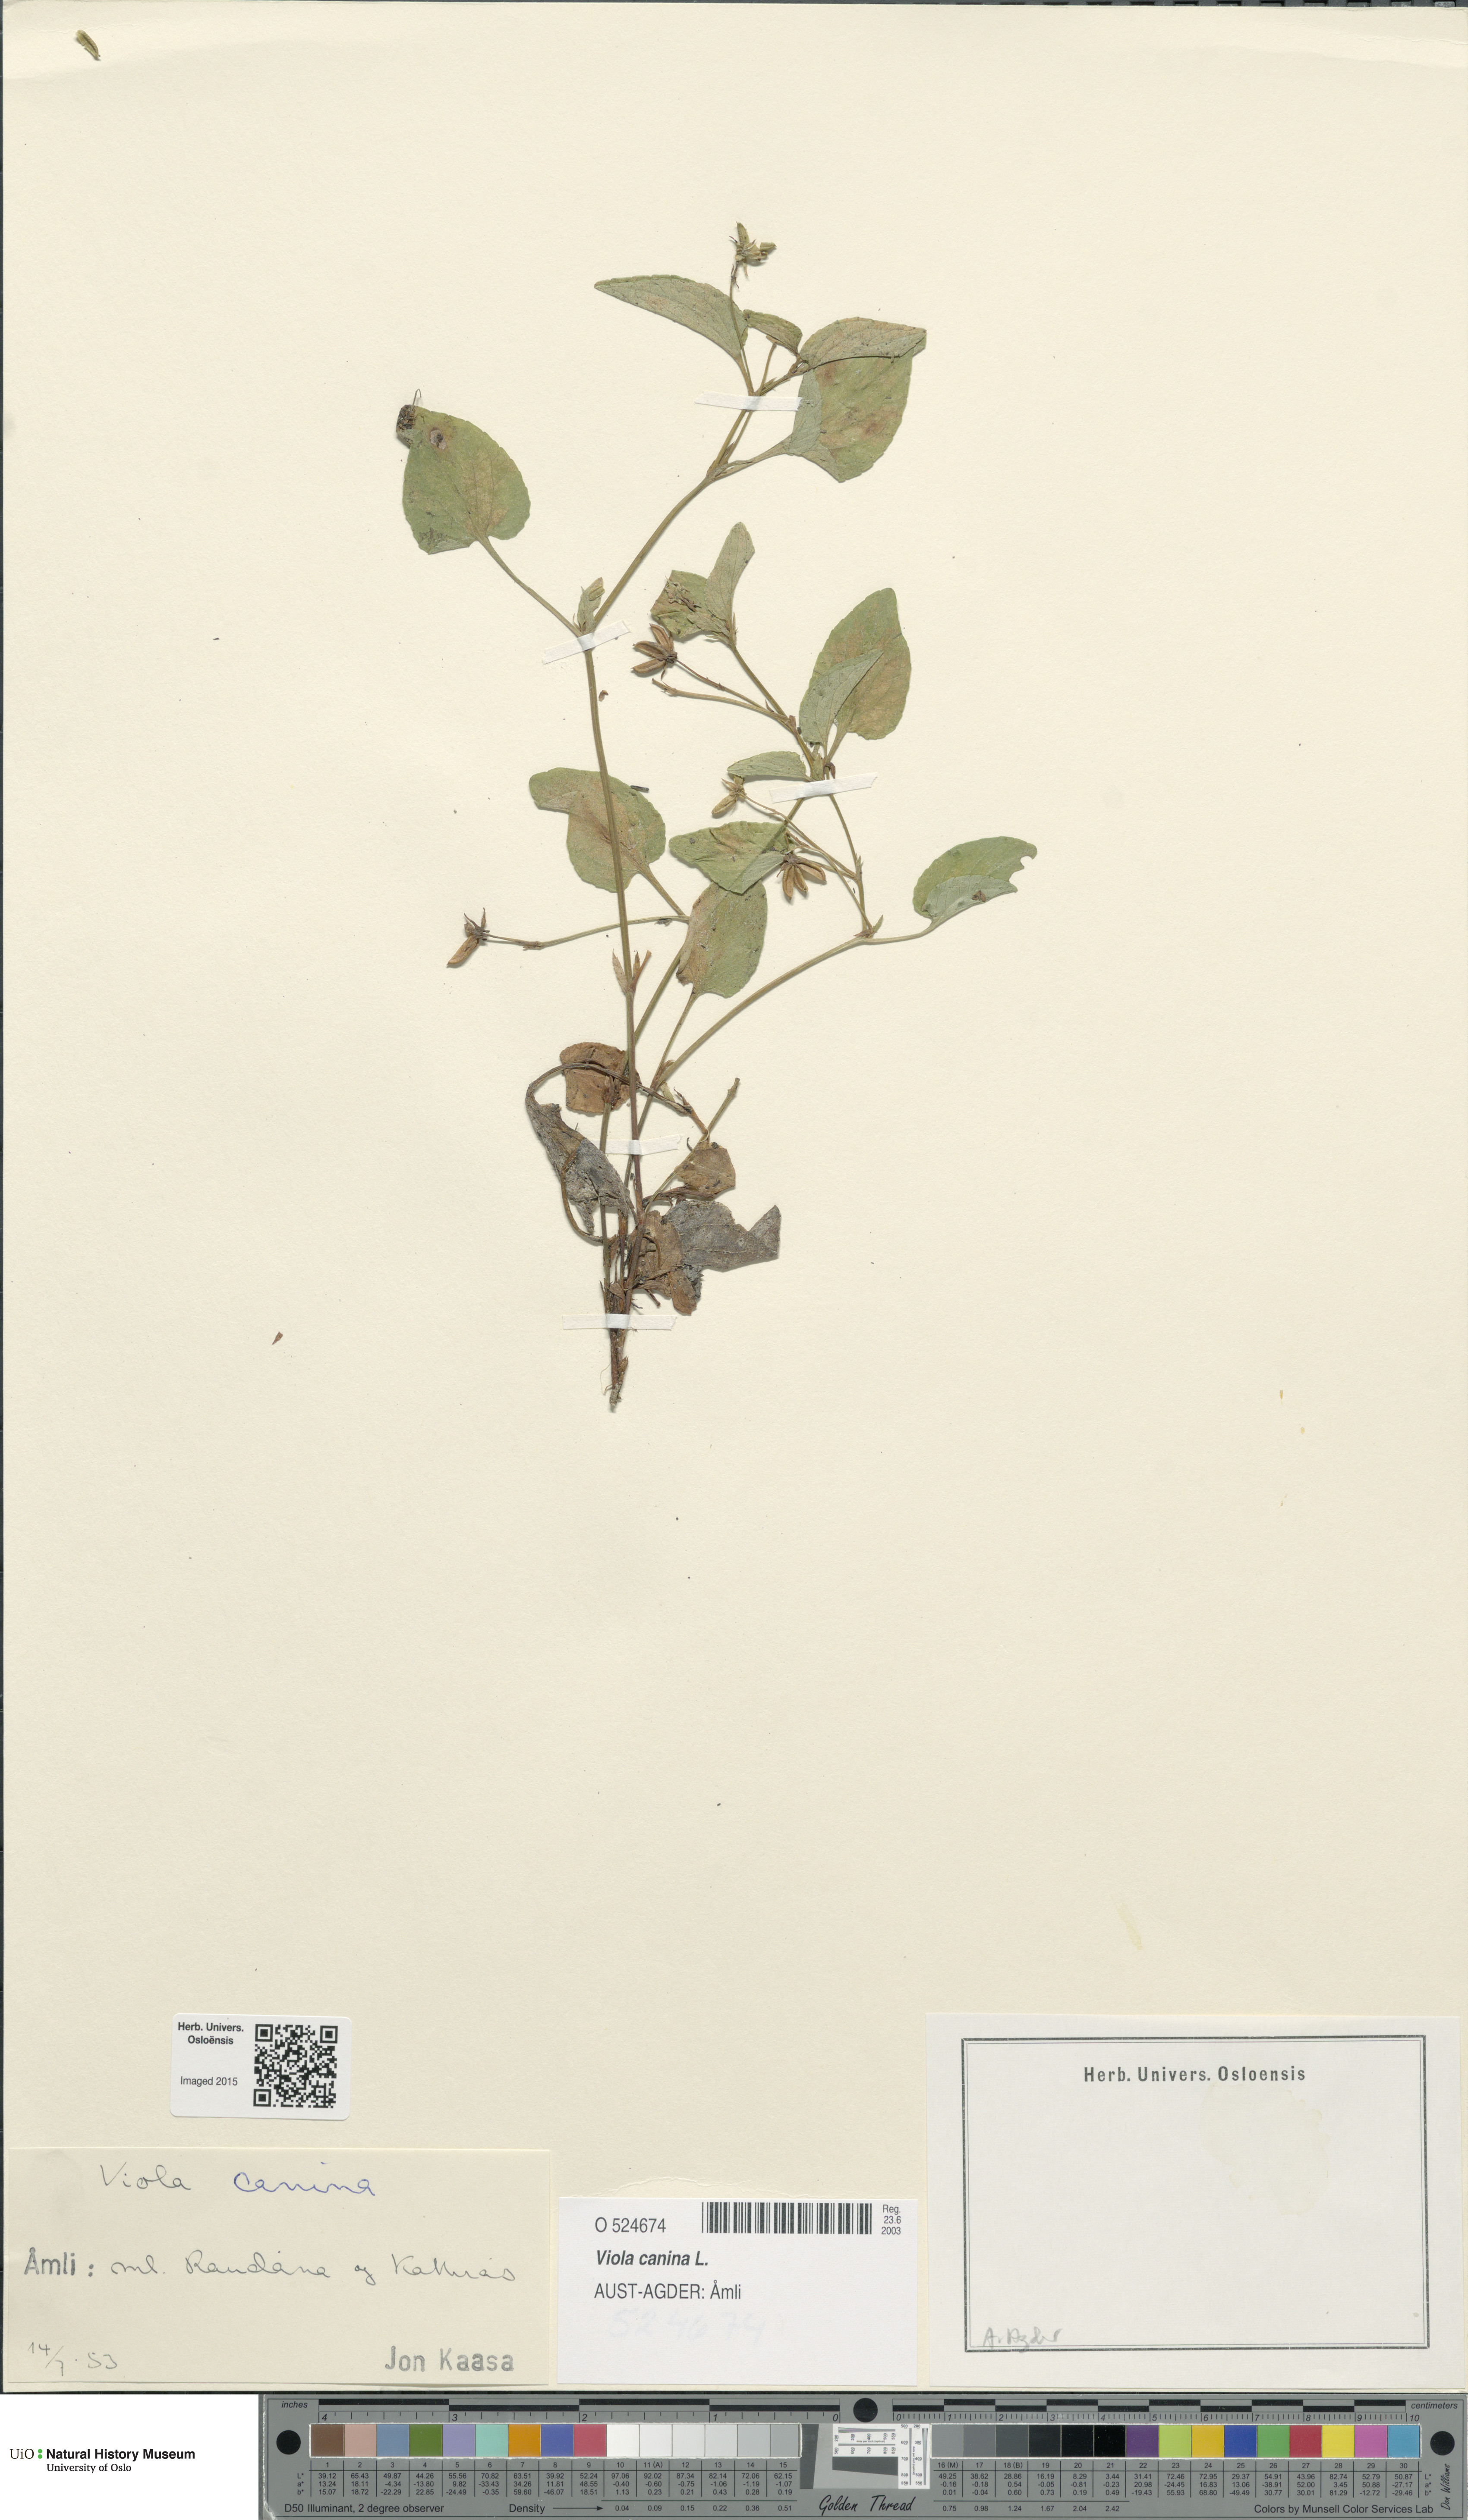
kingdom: Plantae
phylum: Tracheophyta
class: Magnoliopsida
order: Malpighiales
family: Violaceae
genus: Viola
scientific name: Viola canina
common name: Heath dog-violet
